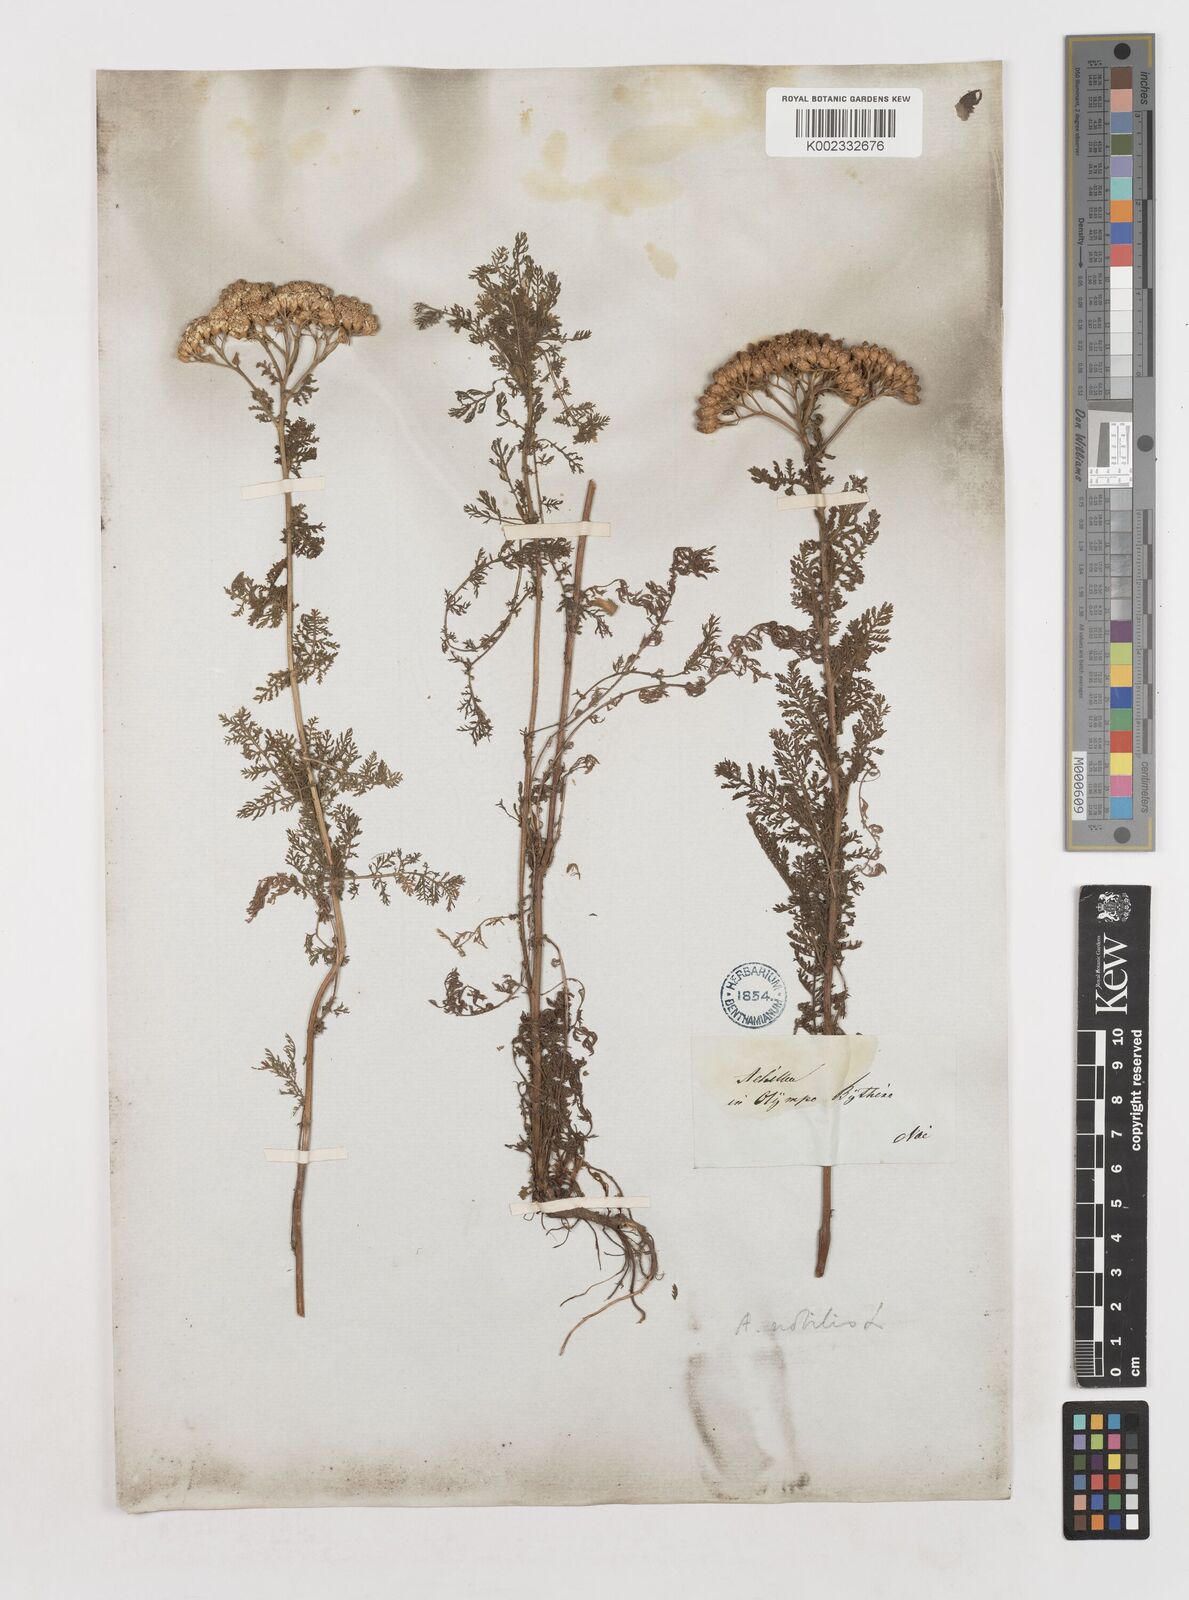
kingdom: Plantae
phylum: Tracheophyta
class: Magnoliopsida
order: Asterales
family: Asteraceae
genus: Achillea
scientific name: Achillea nobilis
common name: Noble yarrow
